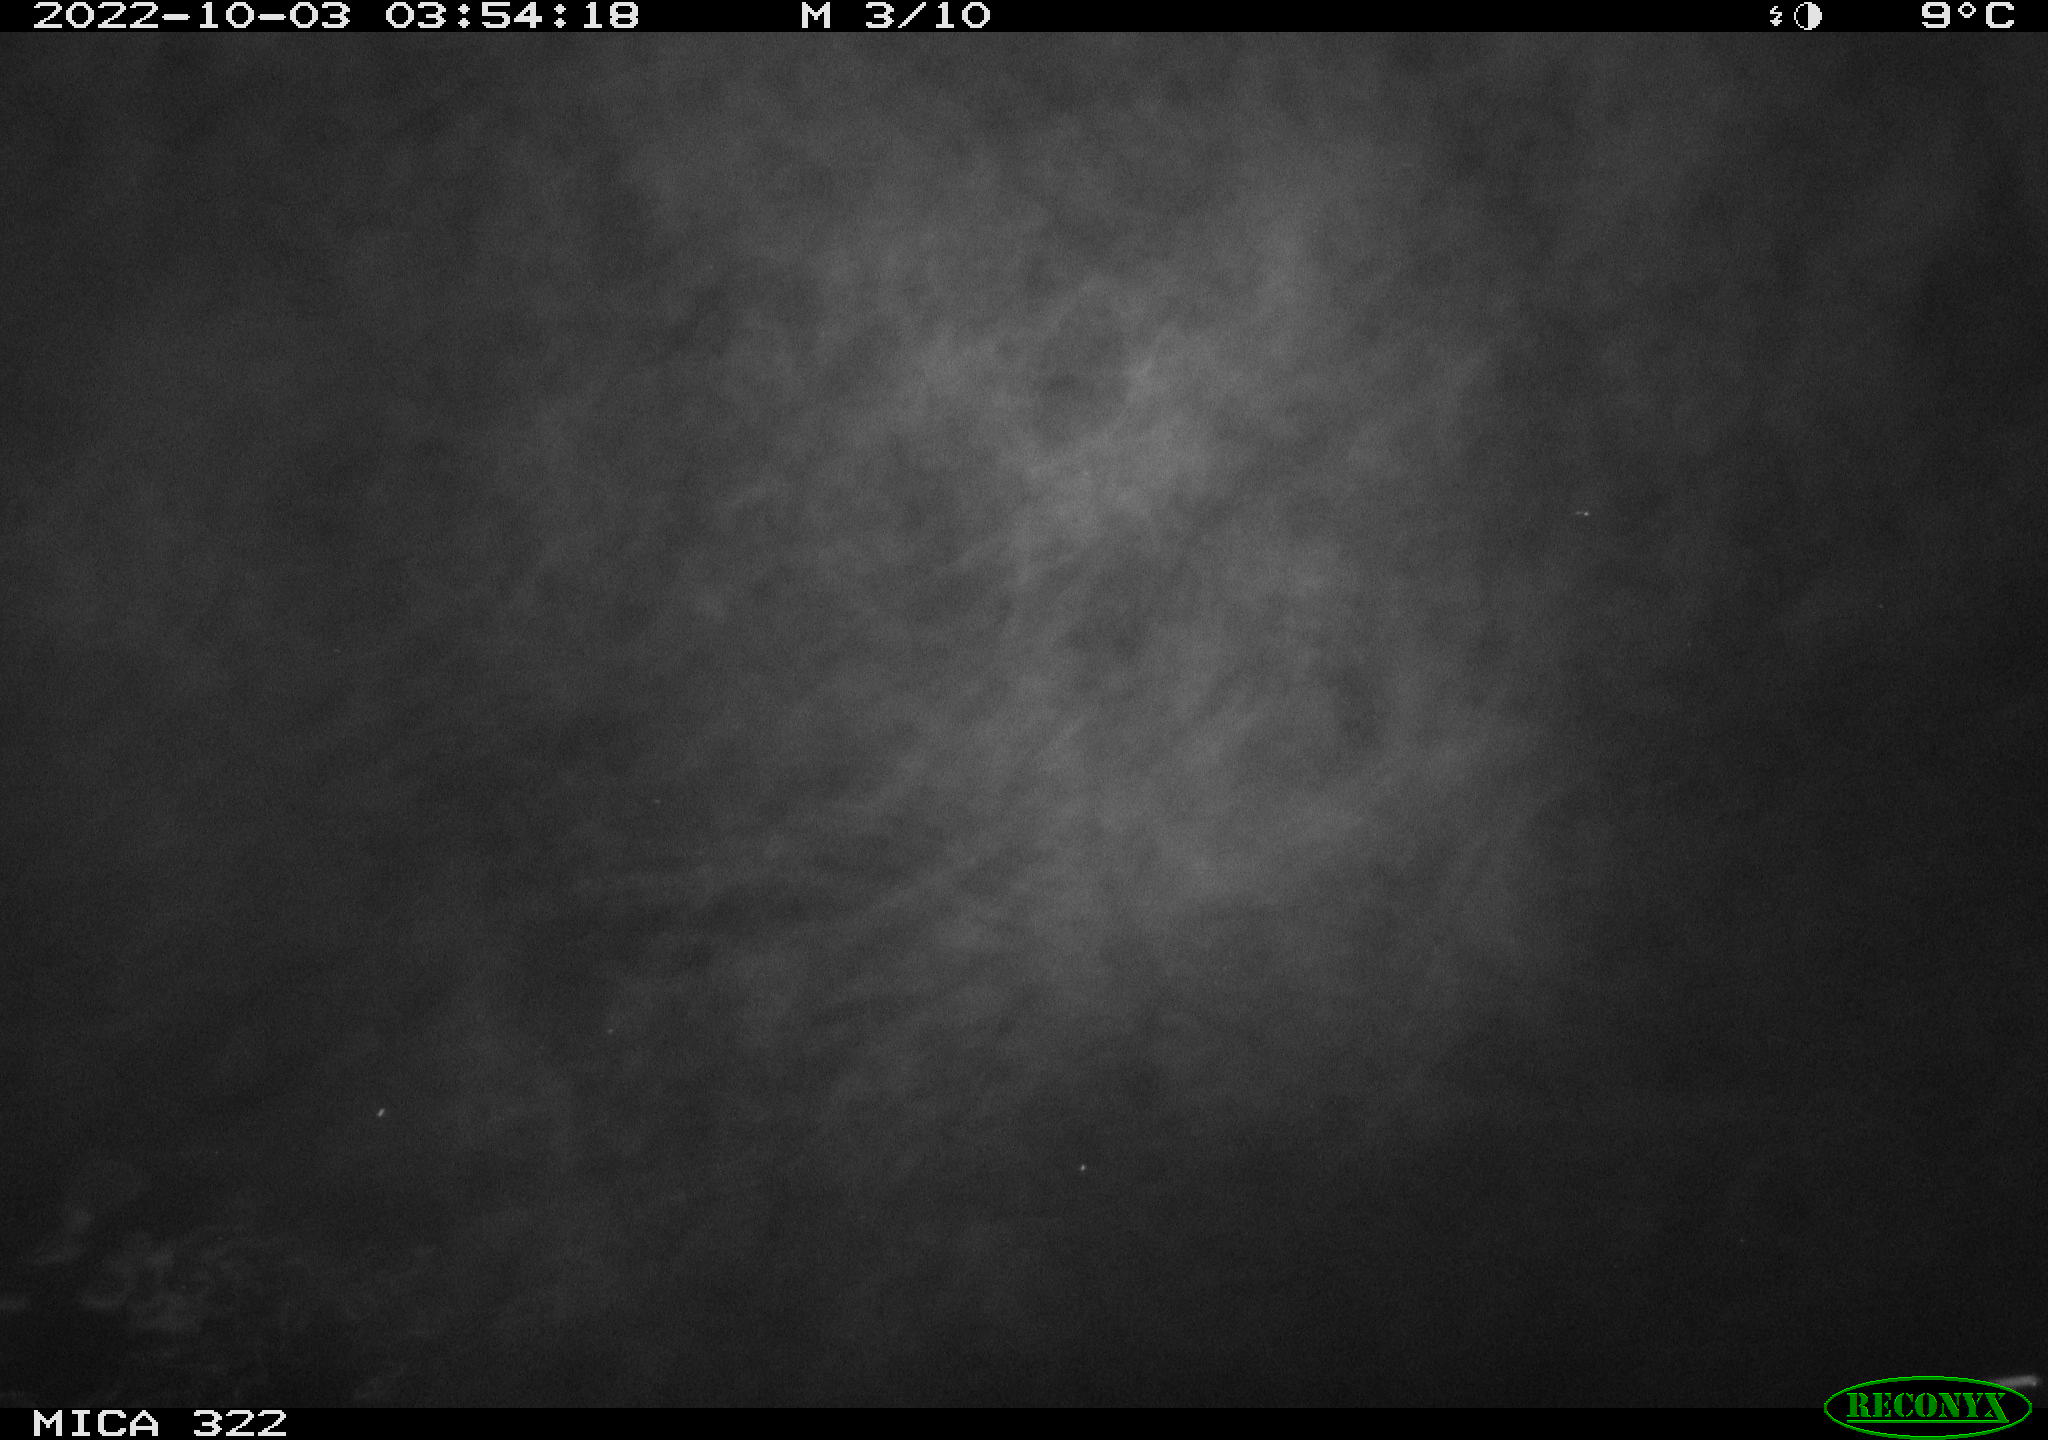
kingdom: Animalia
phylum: Chordata
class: Mammalia
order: Rodentia
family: Cricetidae
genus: Ondatra
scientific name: Ondatra zibethicus
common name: Muskrat
